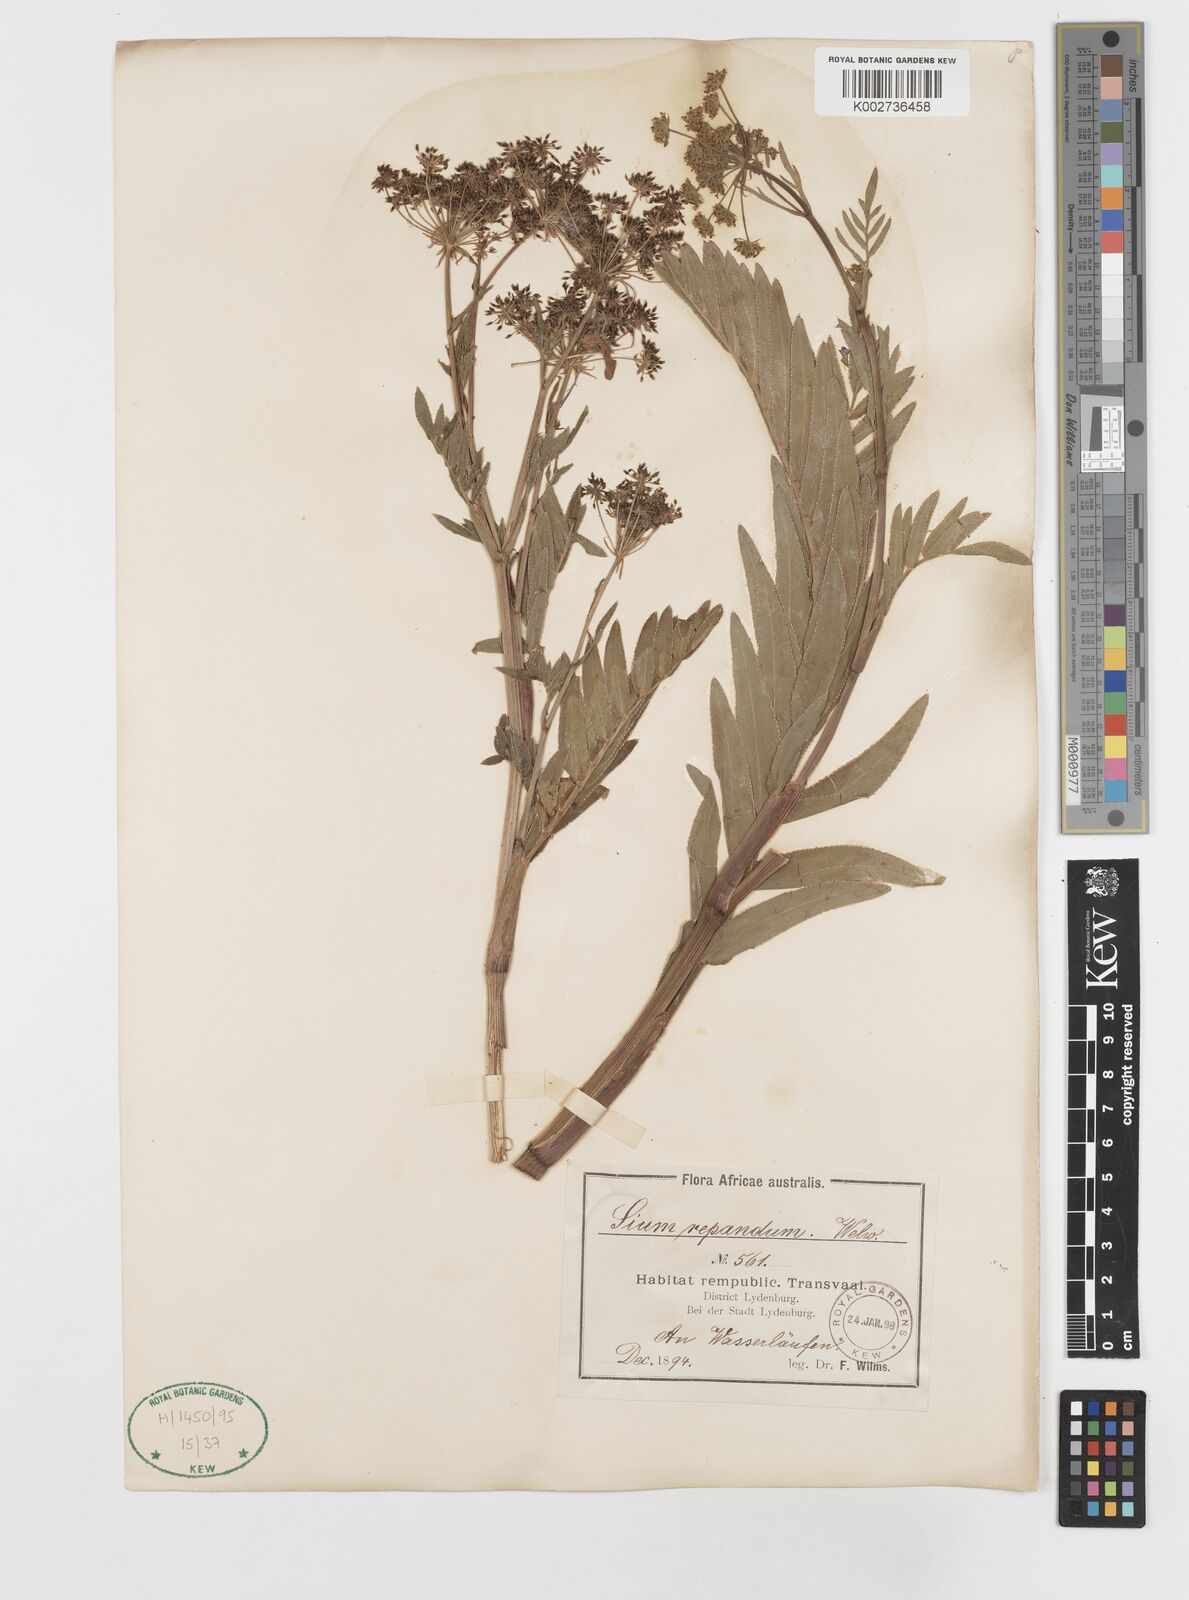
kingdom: Plantae
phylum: Tracheophyta
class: Magnoliopsida
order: Apiales
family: Apiaceae
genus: Berula
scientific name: Berula repanda
